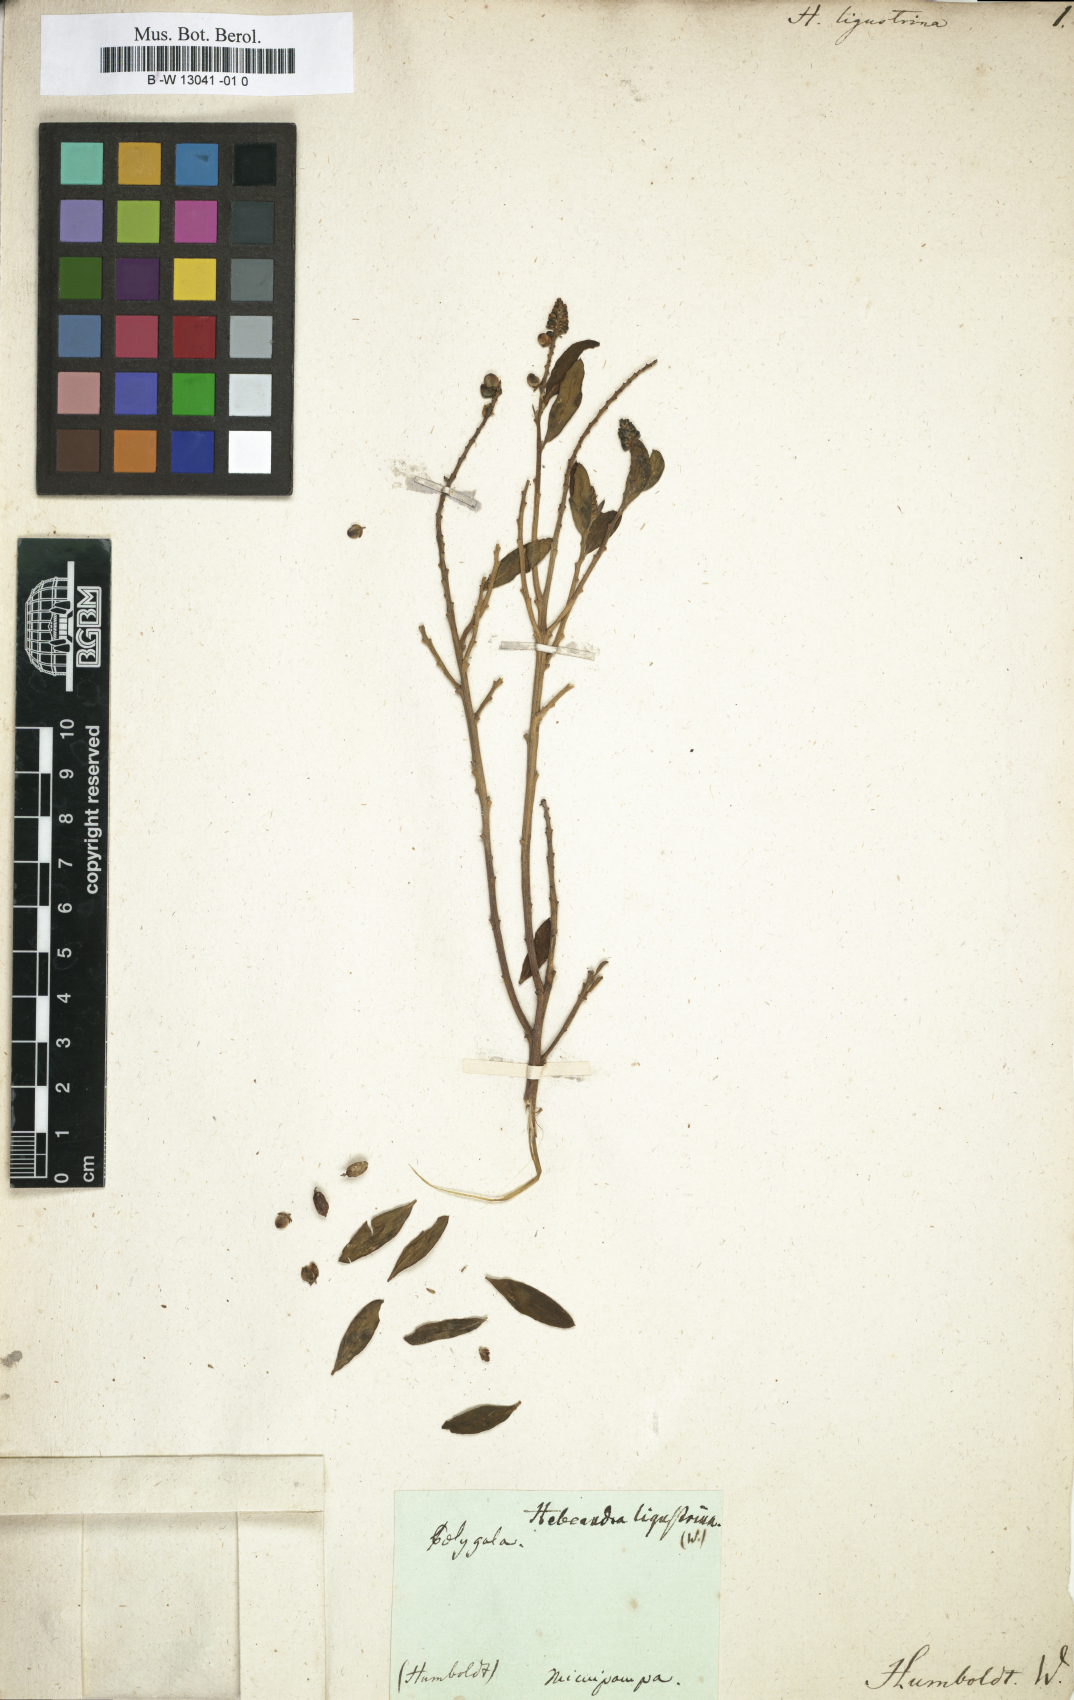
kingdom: Plantae
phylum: Tracheophyta
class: Magnoliopsida
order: Fabales
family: Polygalaceae
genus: Monnina
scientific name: Monnina ligustrina
